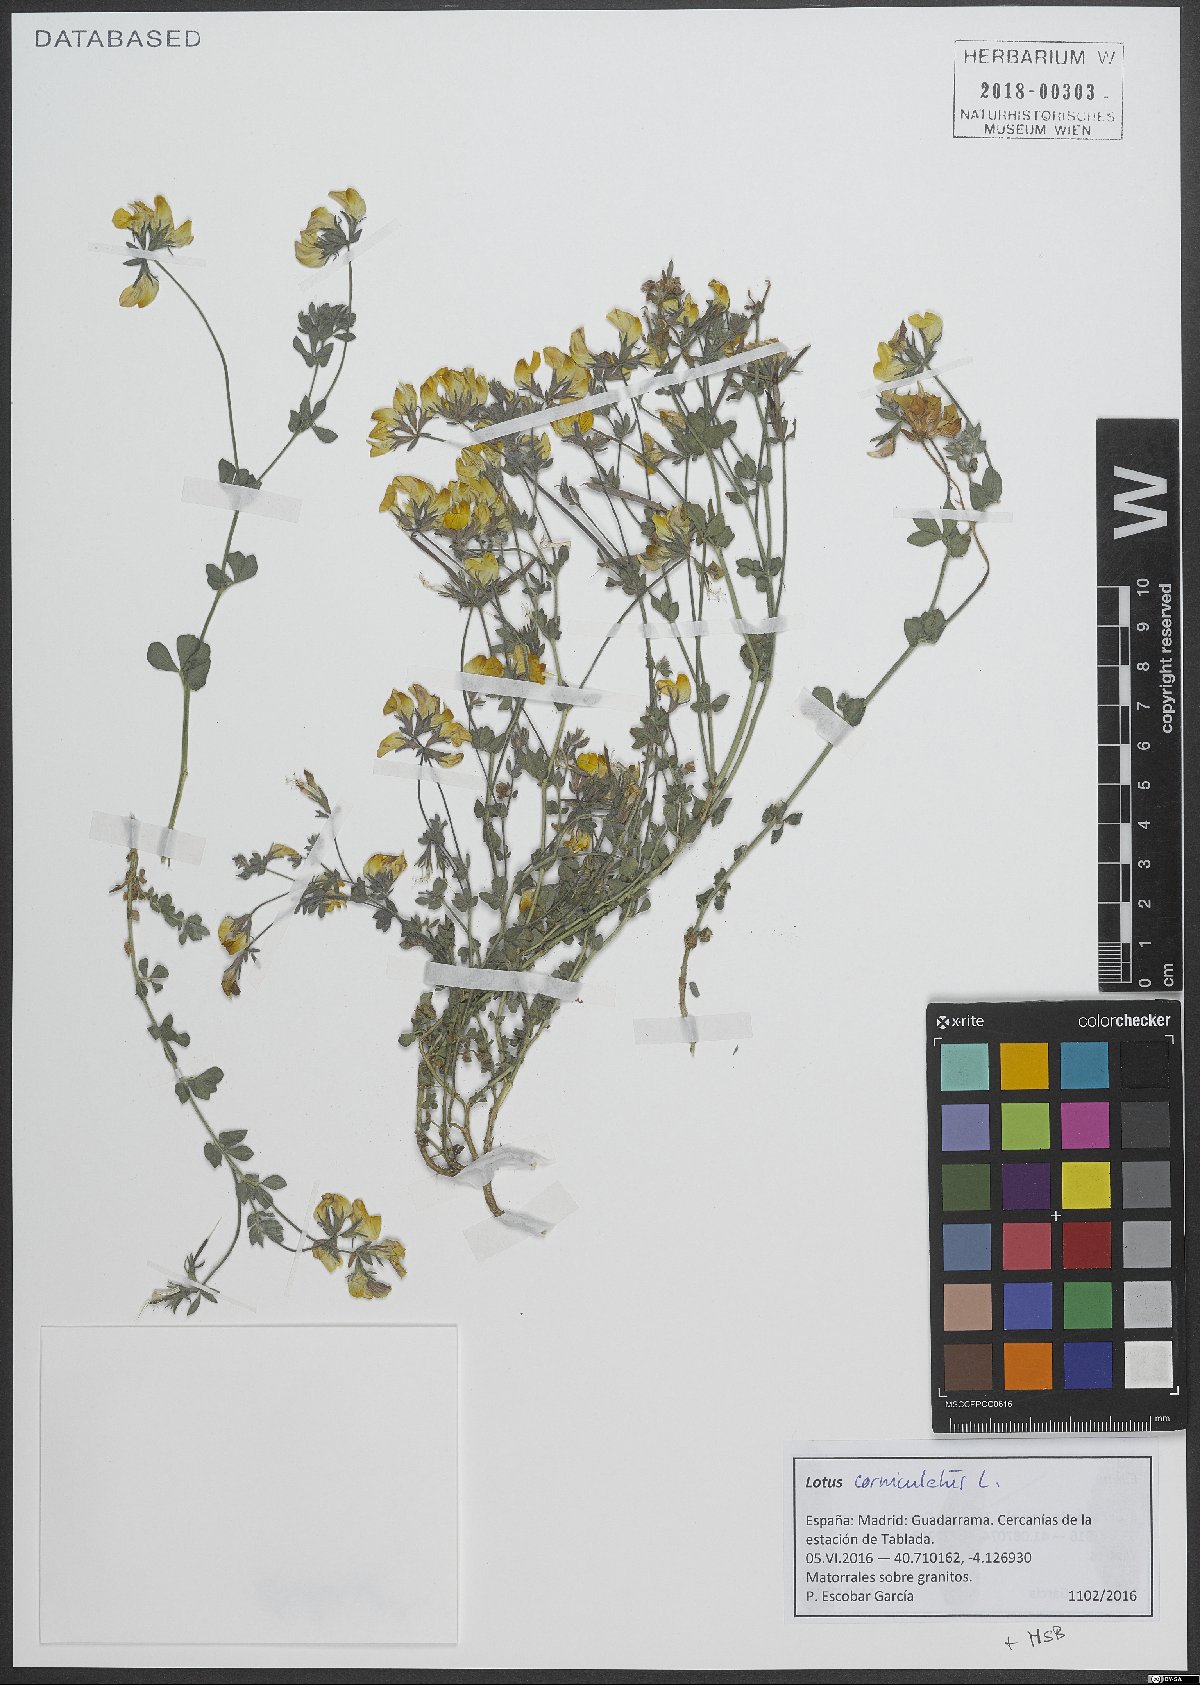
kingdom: Plantae
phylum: Tracheophyta
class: Magnoliopsida
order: Fabales
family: Fabaceae
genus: Lotus
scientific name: Lotus corniculatus
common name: Common bird's-foot-trefoil
